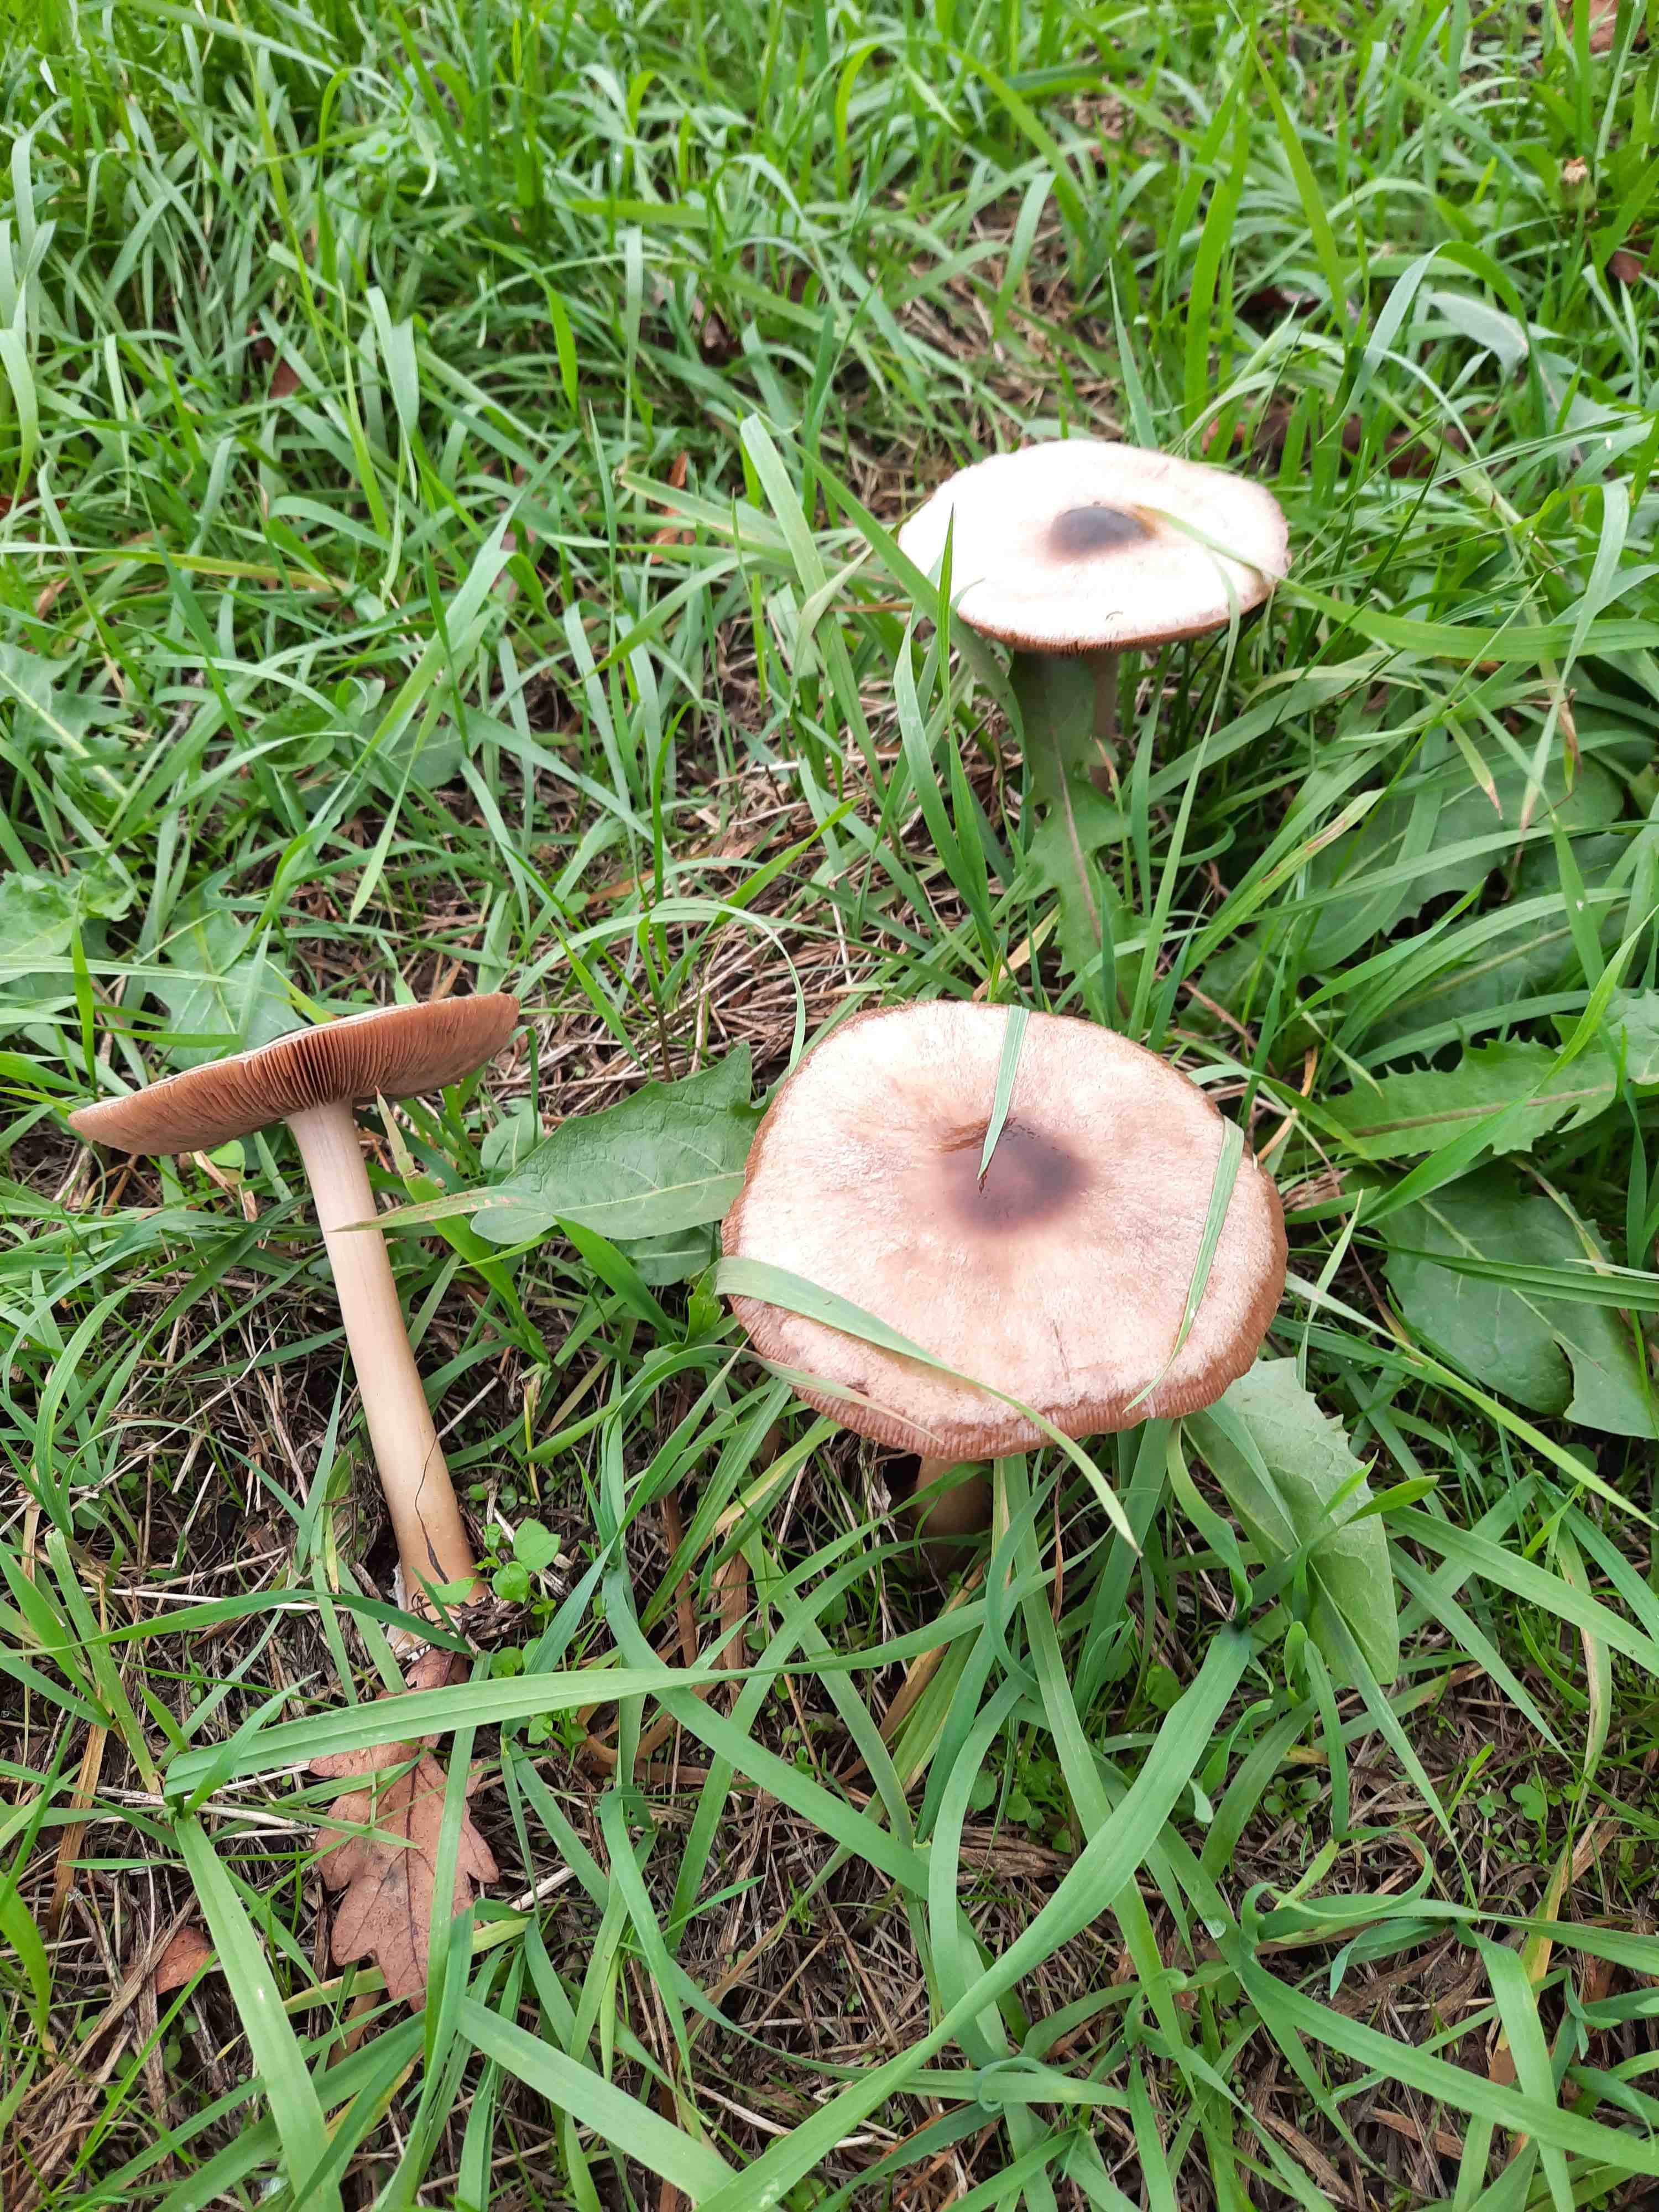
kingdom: Fungi
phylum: Basidiomycota
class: Agaricomycetes
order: Agaricales
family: Pluteaceae
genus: Volvopluteus
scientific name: Volvopluteus gloiocephalus
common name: høj posesvamp
